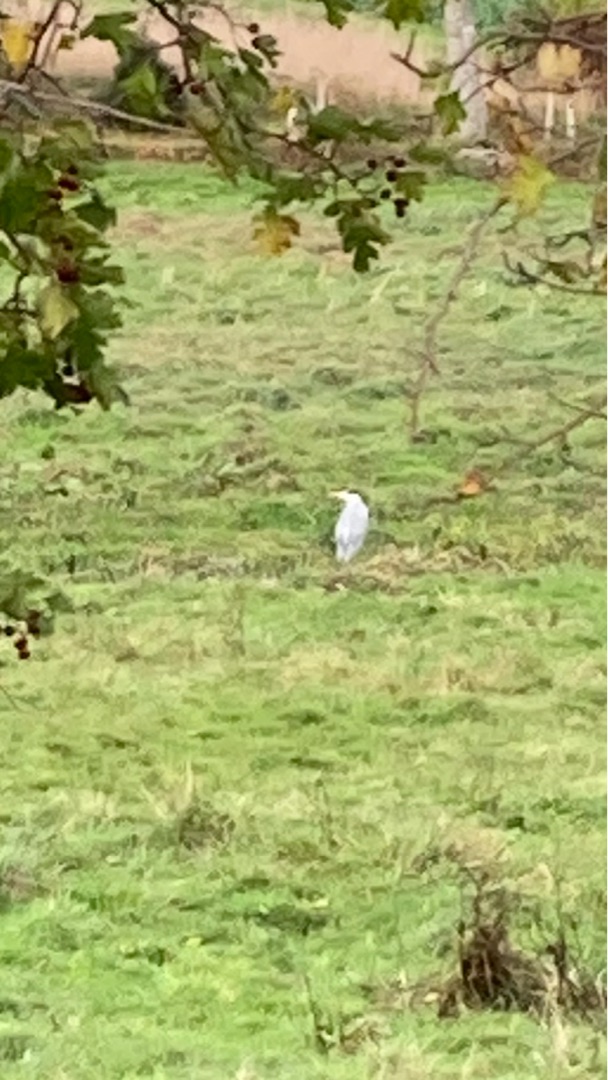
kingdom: Animalia
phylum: Chordata
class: Aves
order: Pelecaniformes
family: Ardeidae
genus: Ardea
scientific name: Ardea cinerea
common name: Fiskehejre
